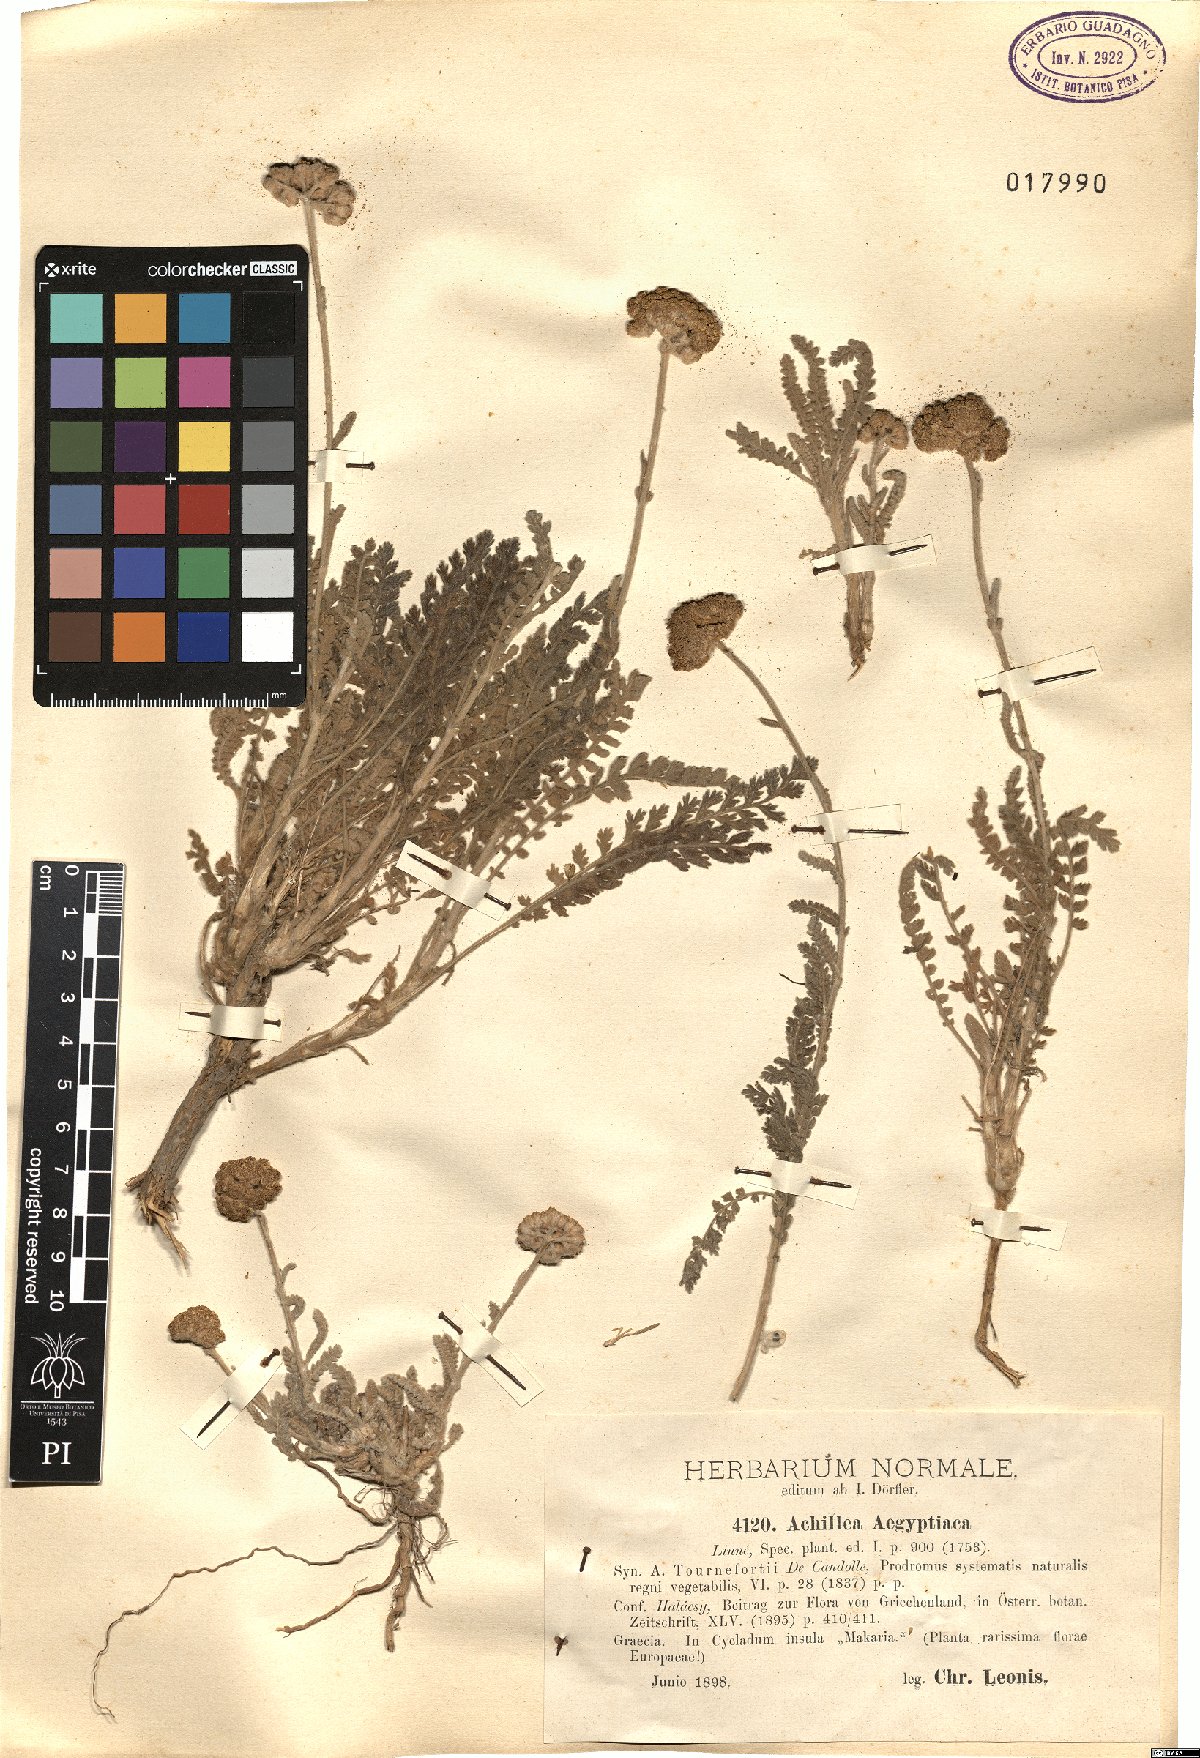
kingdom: Plantae
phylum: Tracheophyta
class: Magnoliopsida
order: Asterales
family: Asteraceae
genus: Achillea
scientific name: Achillea aegyptiaca
